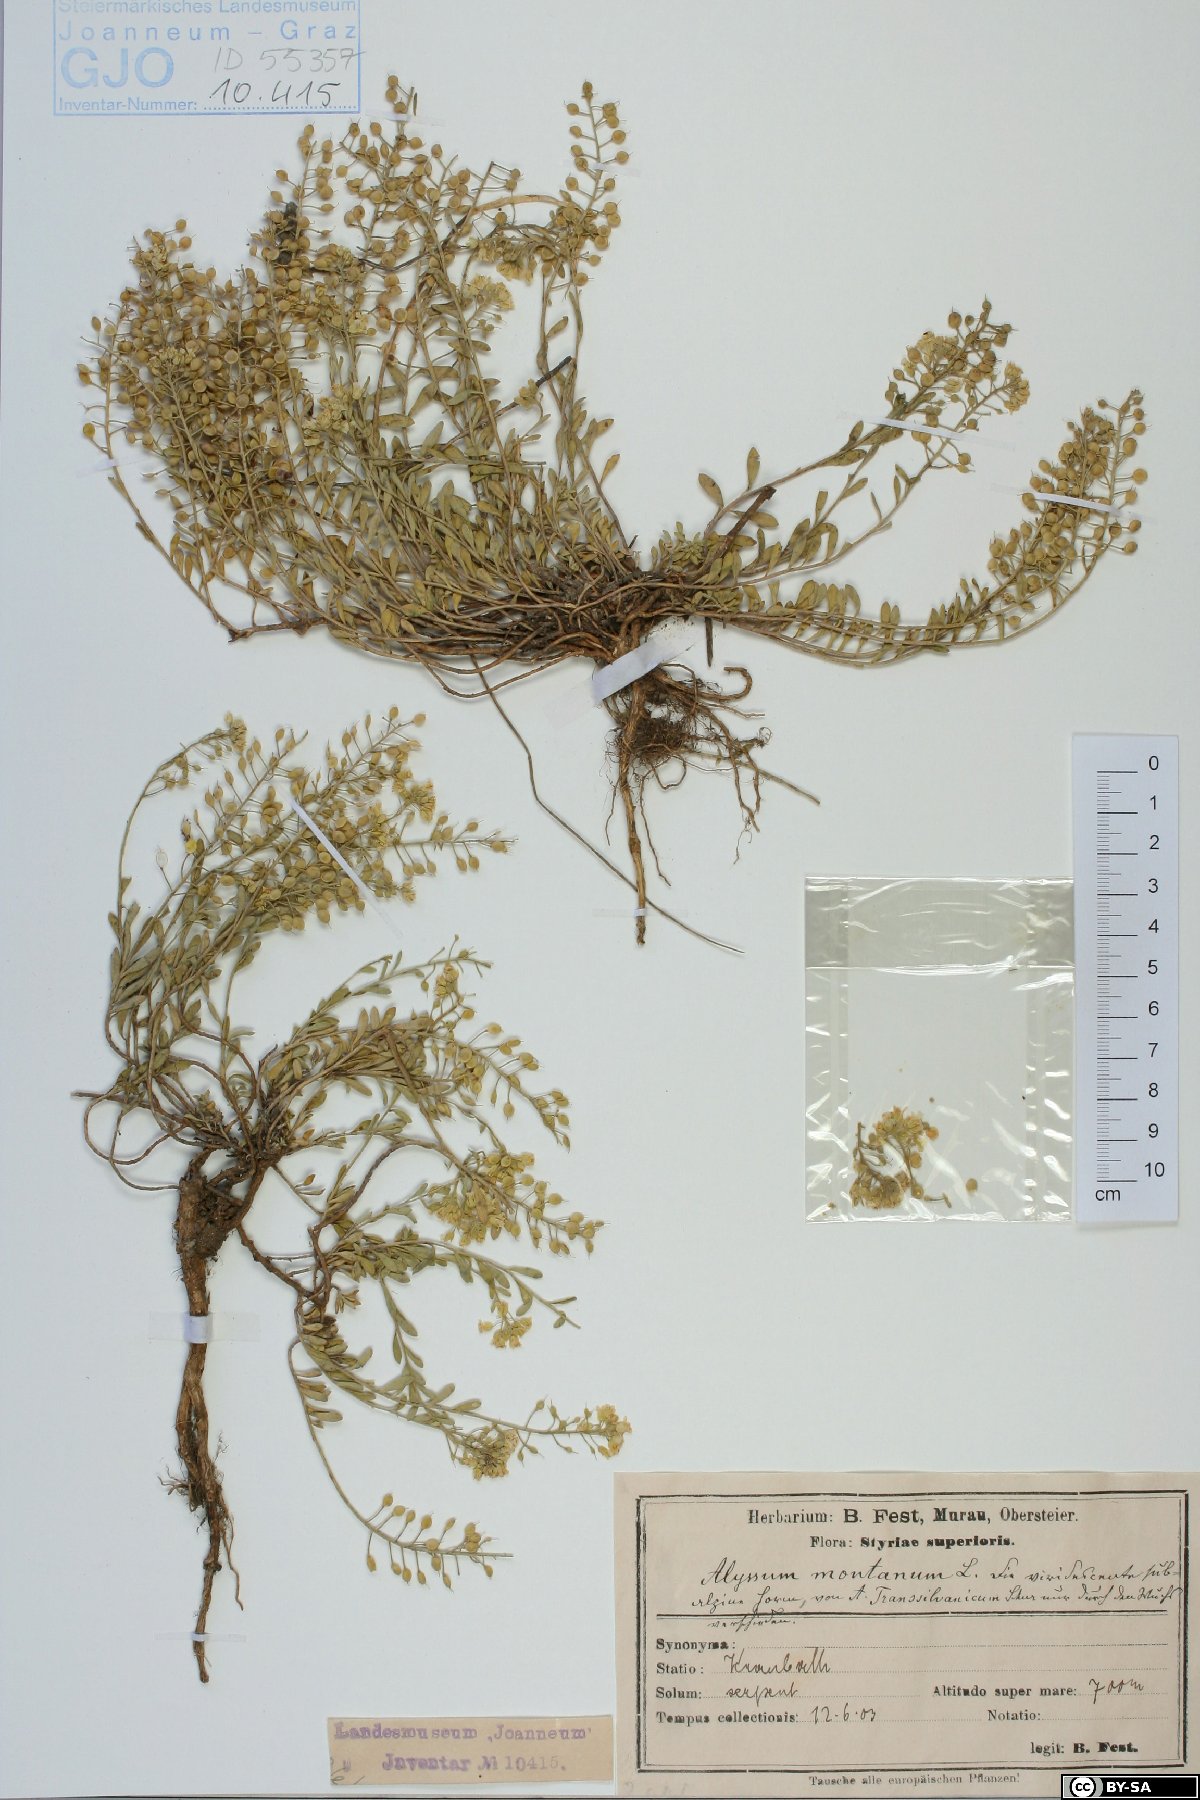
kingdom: Plantae
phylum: Tracheophyta
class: Magnoliopsida
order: Brassicales
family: Brassicaceae
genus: Alyssum
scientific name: Alyssum montanum
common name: Mountain alison
